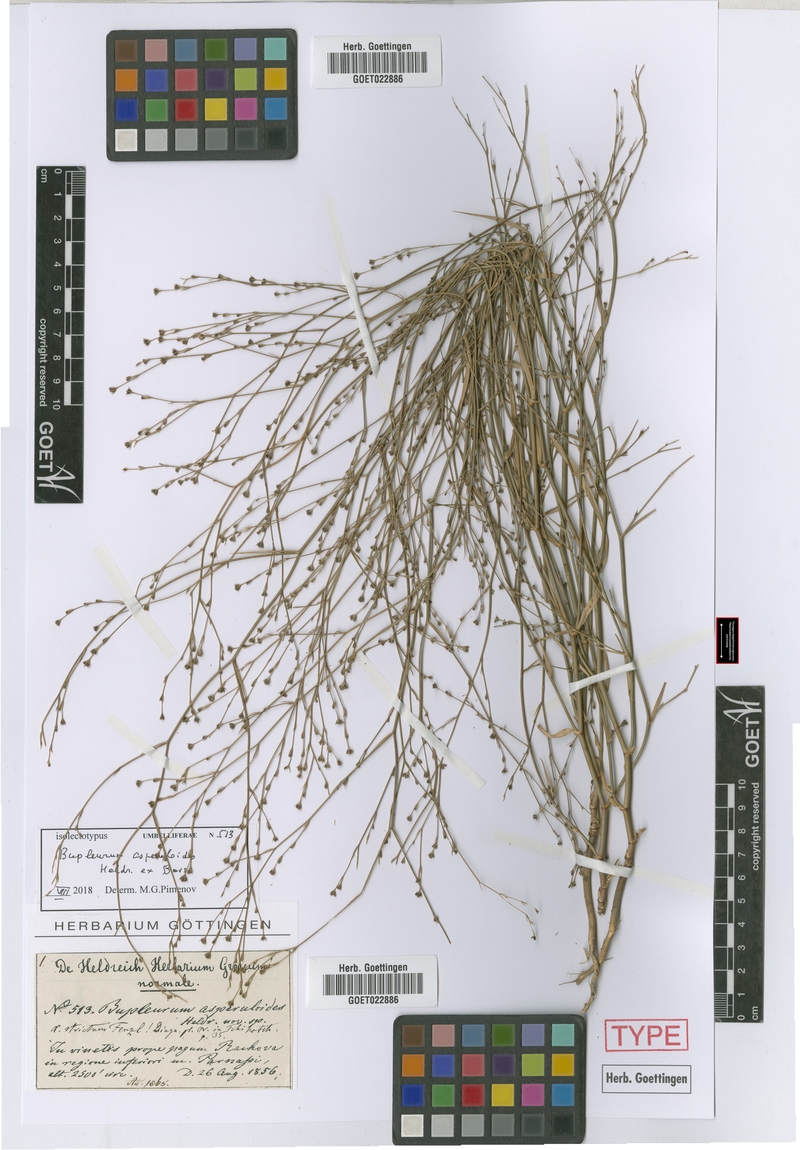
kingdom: Plantae
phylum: Tracheophyta
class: Magnoliopsida
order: Apiales
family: Apiaceae
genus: Bupleurum
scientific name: Bupleurum asperuloides
